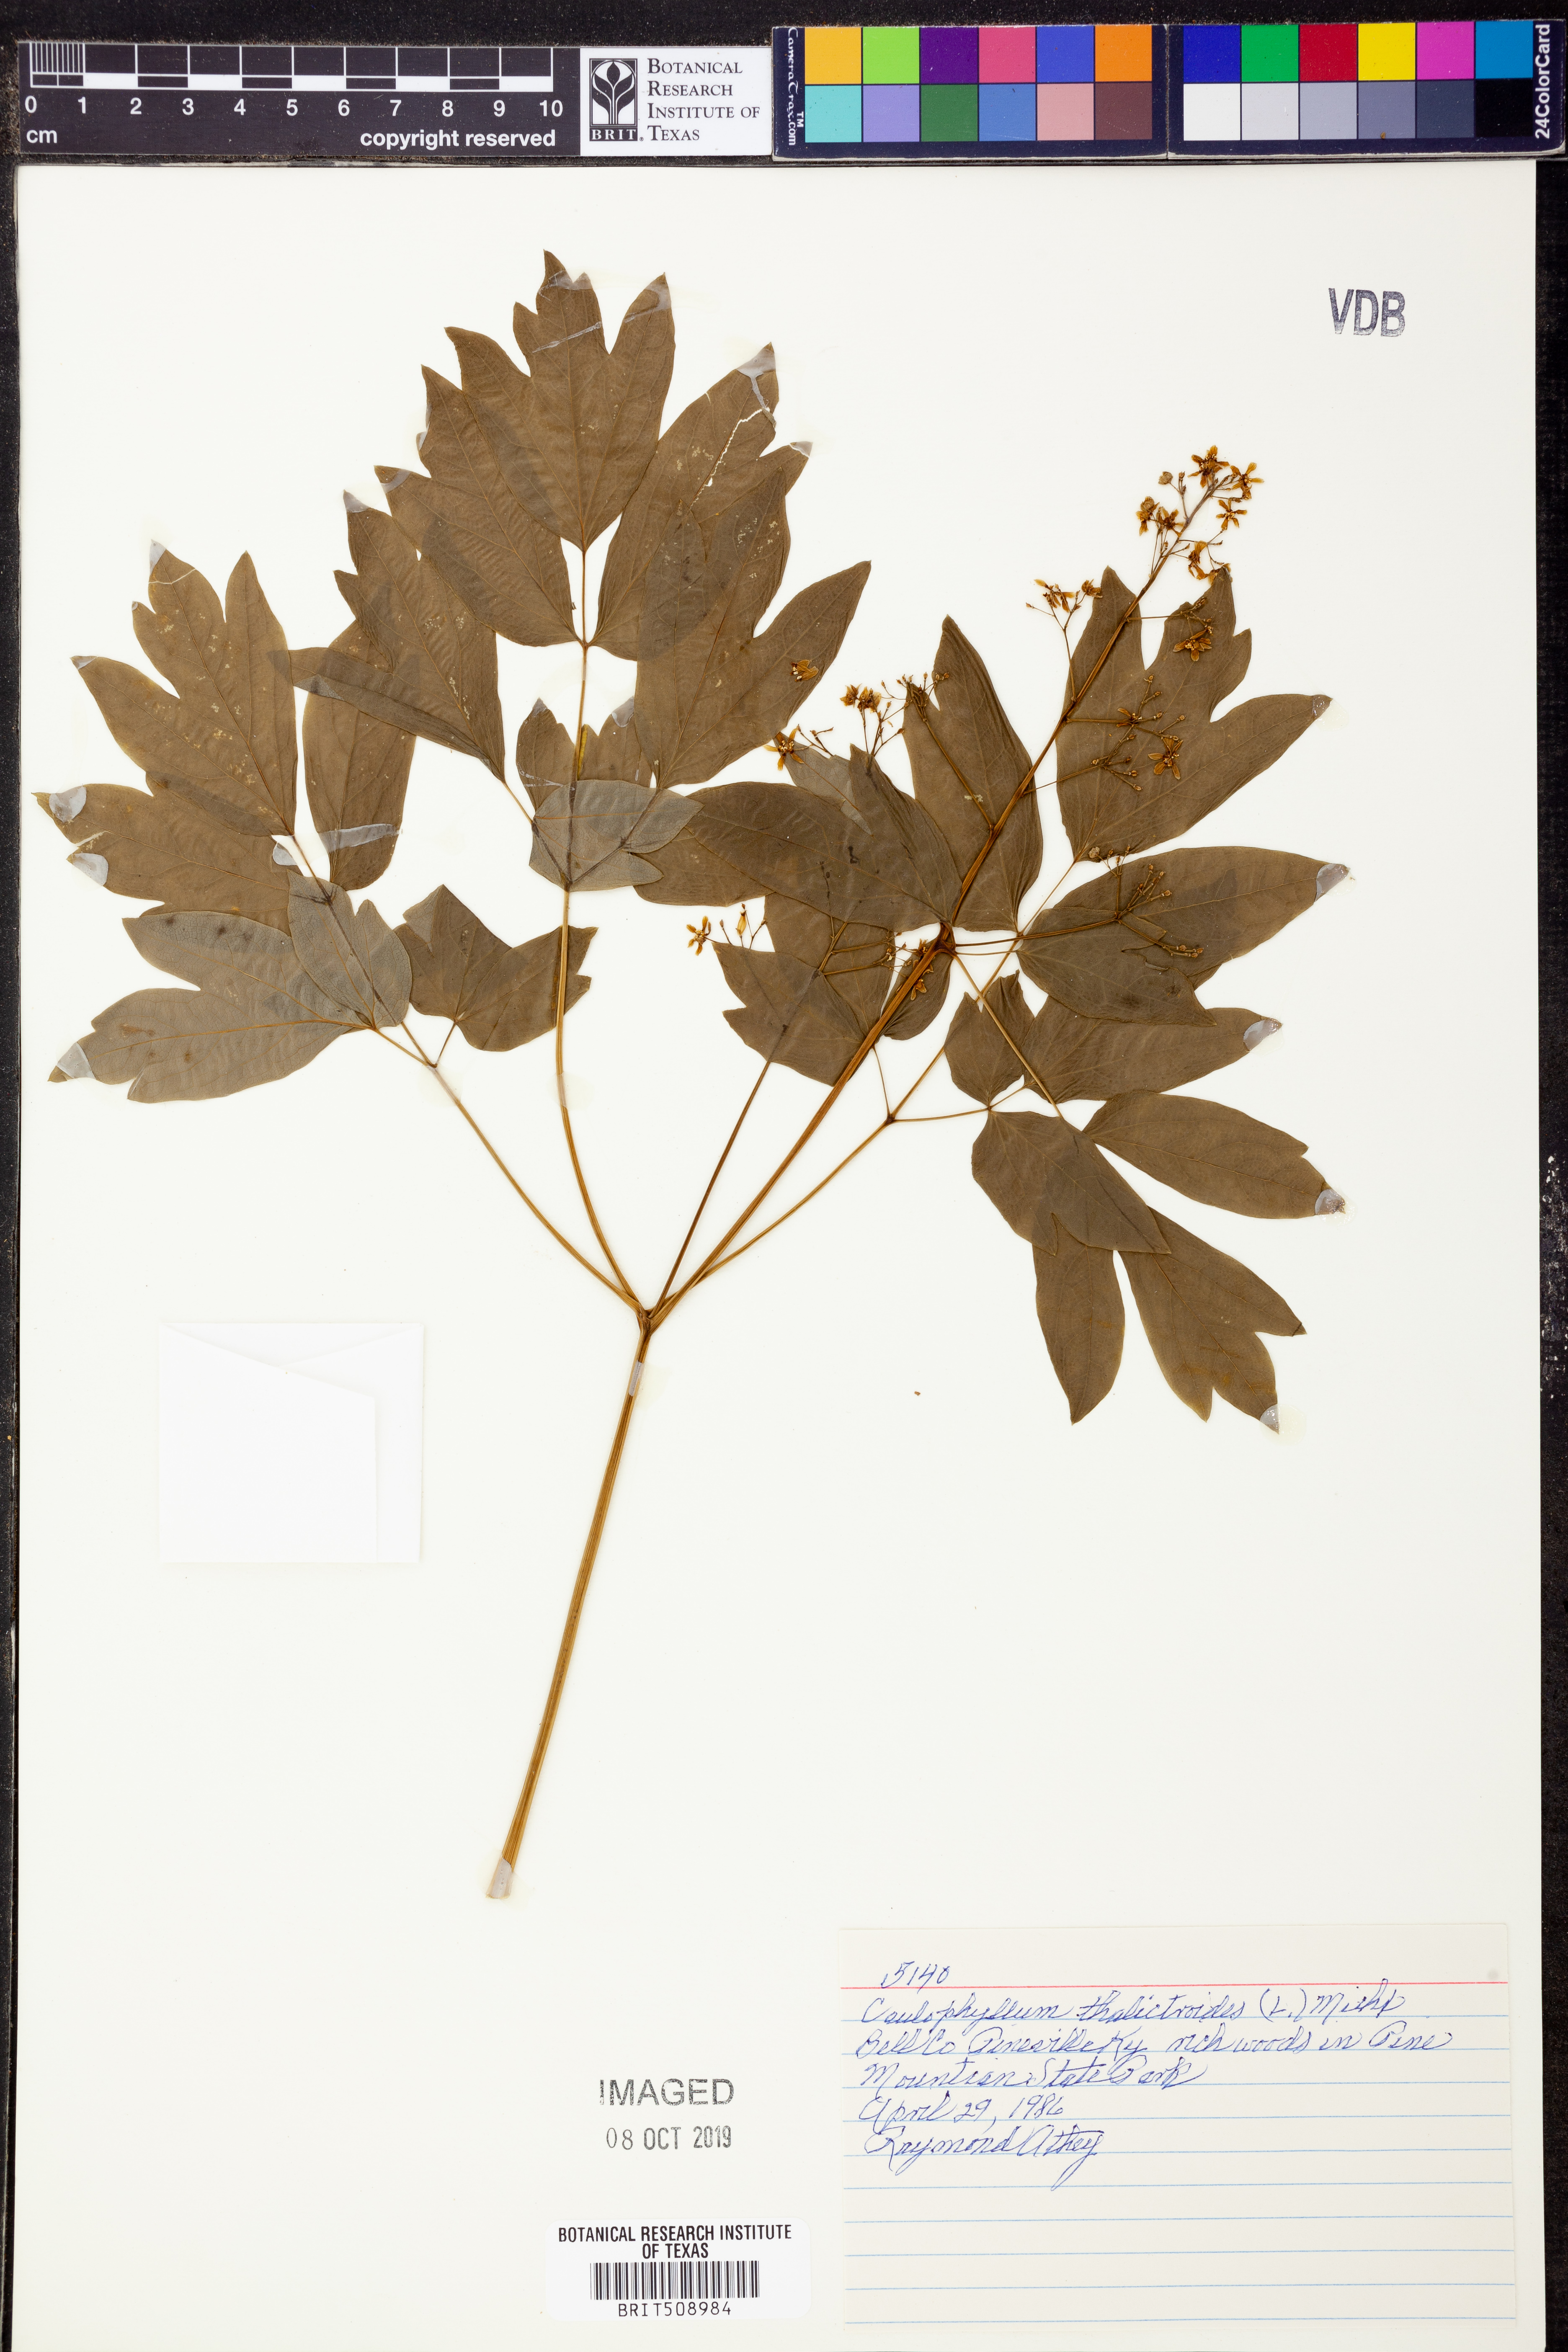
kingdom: Plantae
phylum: Tracheophyta
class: Magnoliopsida
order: Ranunculales
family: Berberidaceae
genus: Caulophyllum
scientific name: Caulophyllum thalictroides
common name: Blue cohosh
